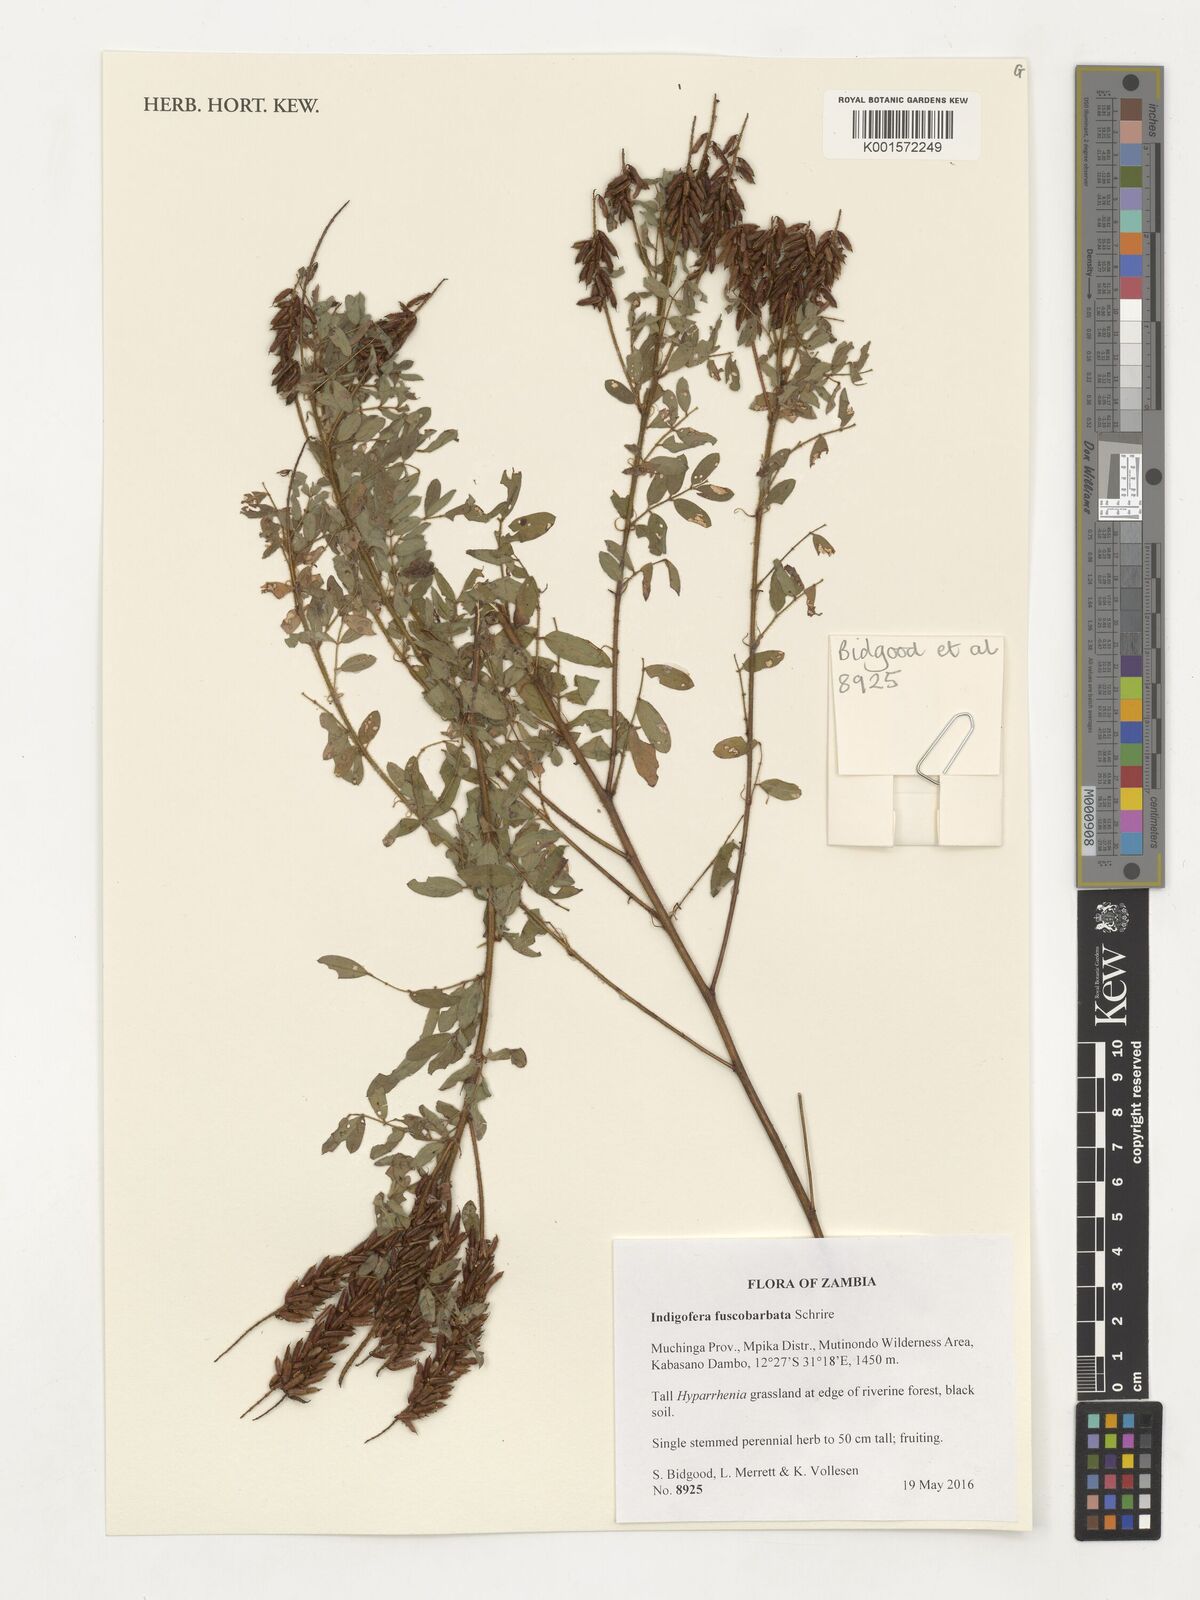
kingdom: Plantae
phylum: Tracheophyta
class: Magnoliopsida
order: Fabales
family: Fabaceae
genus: Indigofera
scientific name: Indigofera fuscobarbata
